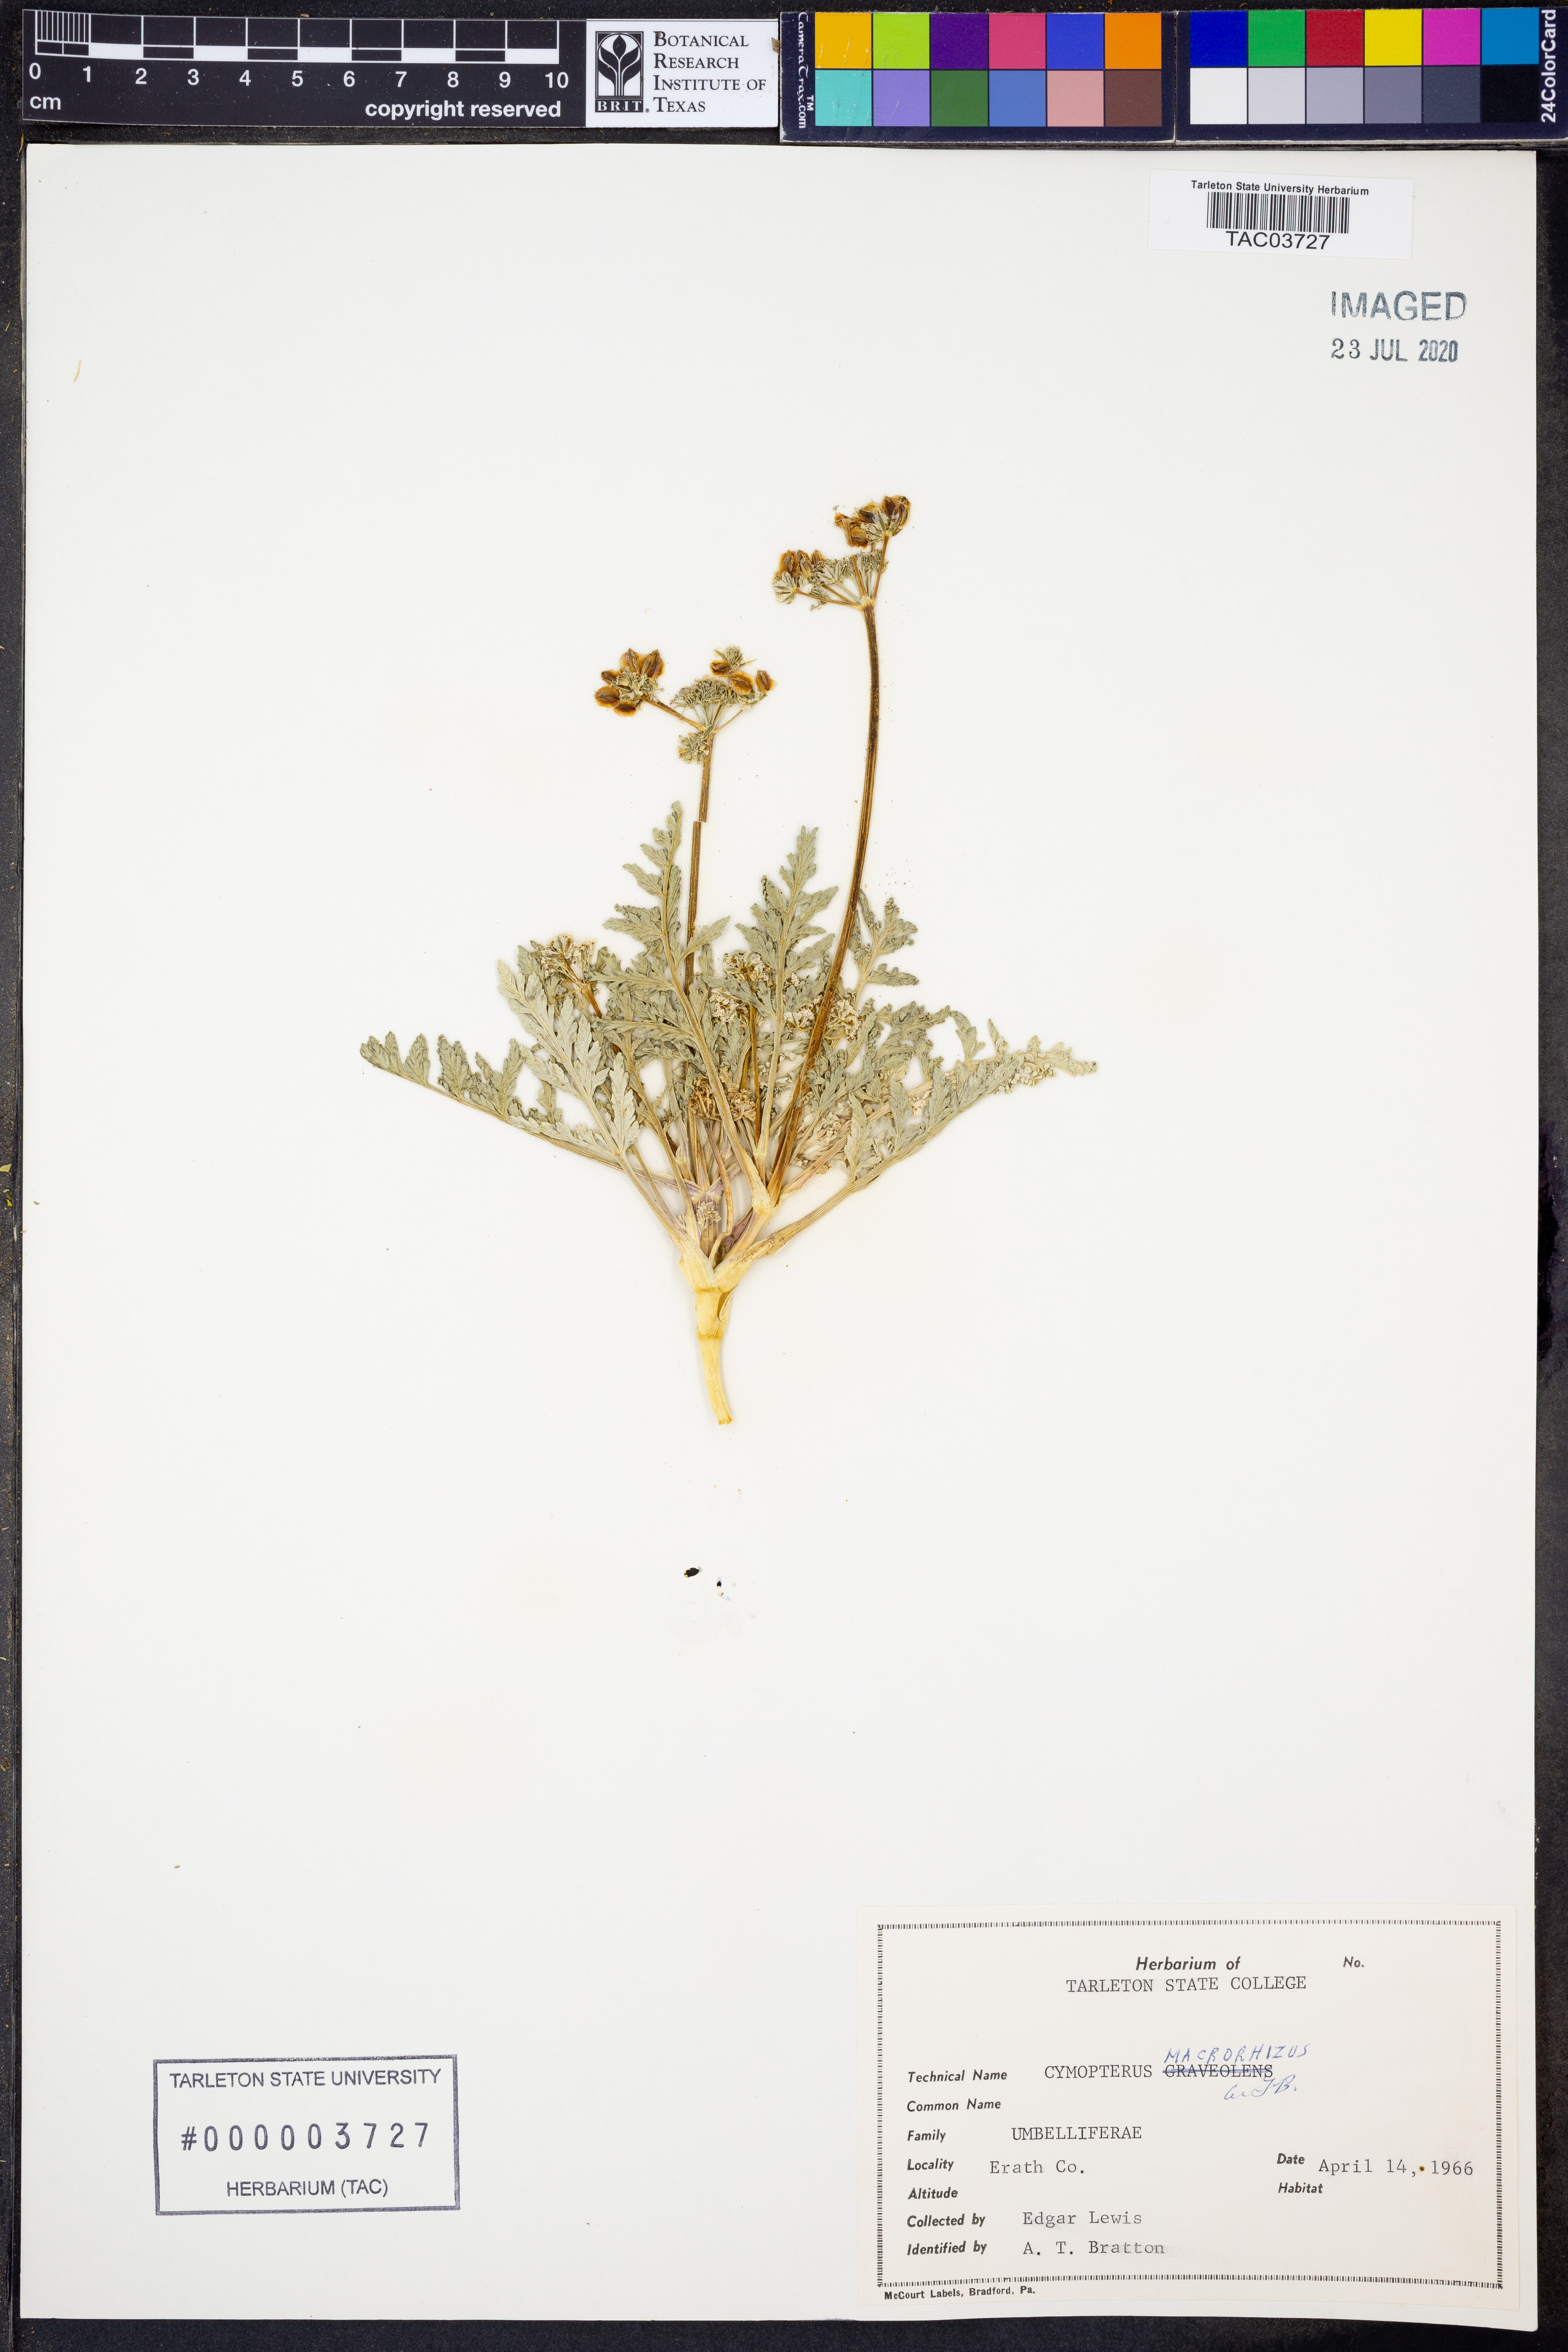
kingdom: Plantae
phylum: Tracheophyta
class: Magnoliopsida
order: Apiales
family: Apiaceae
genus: Vesper
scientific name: Vesper macrorhizus
